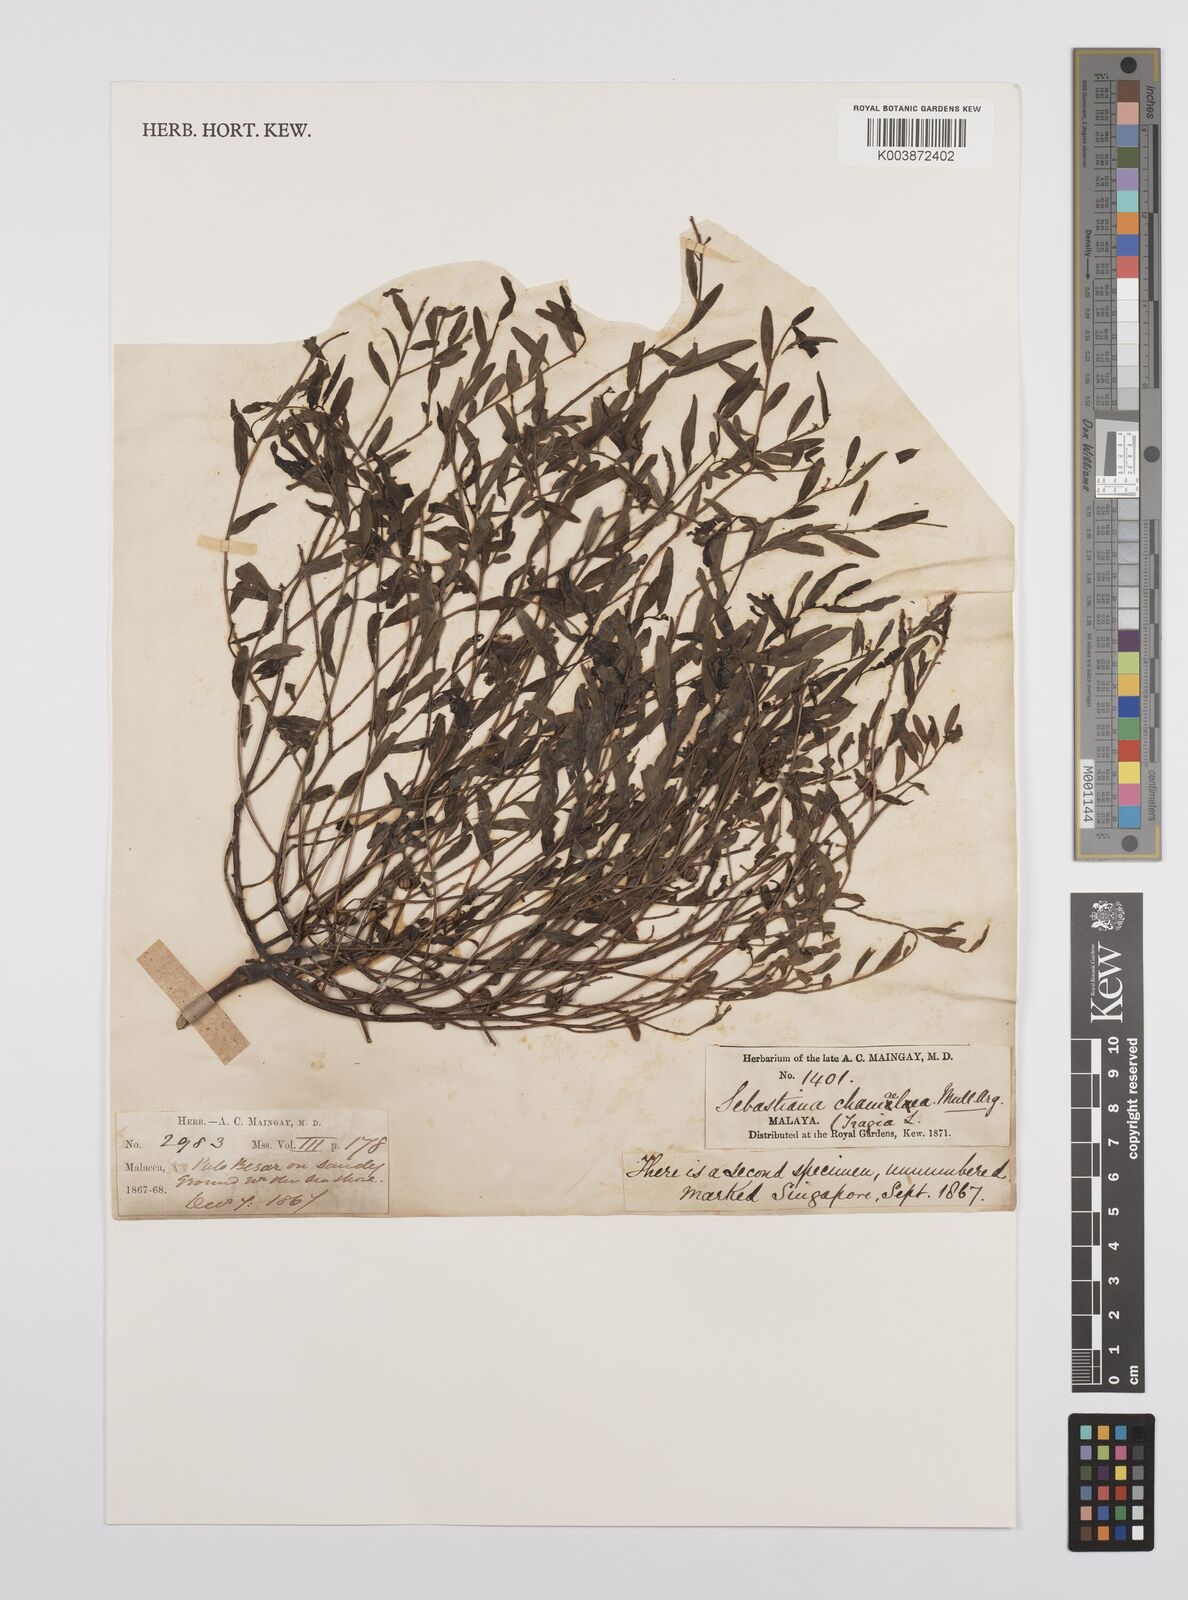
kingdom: Plantae
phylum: Tracheophyta
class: Magnoliopsida
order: Malpighiales
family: Euphorbiaceae
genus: Microstachys
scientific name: Microstachys chamaelea
